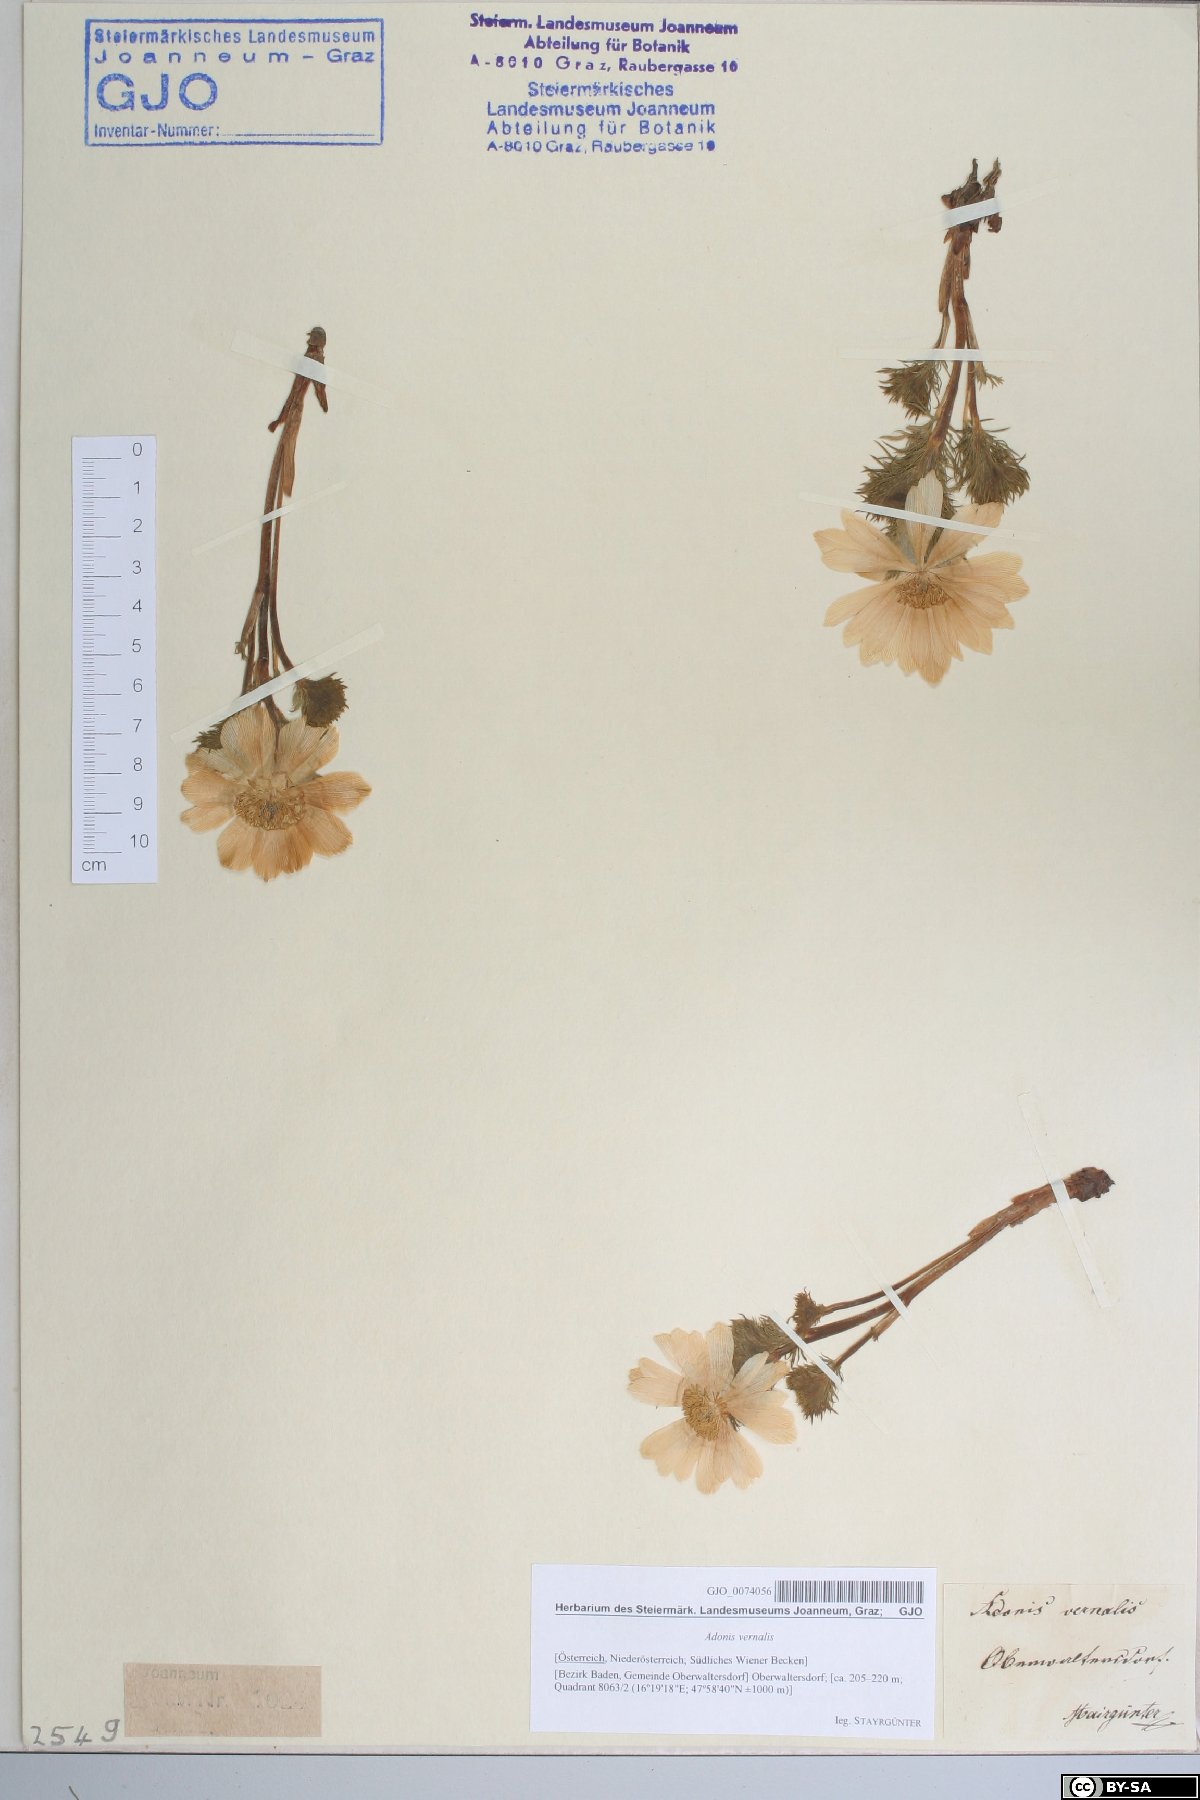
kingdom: Plantae
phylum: Tracheophyta
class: Magnoliopsida
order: Ranunculales
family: Ranunculaceae
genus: Adonis
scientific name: Adonis vernalis
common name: Yellow pheasants-eye
